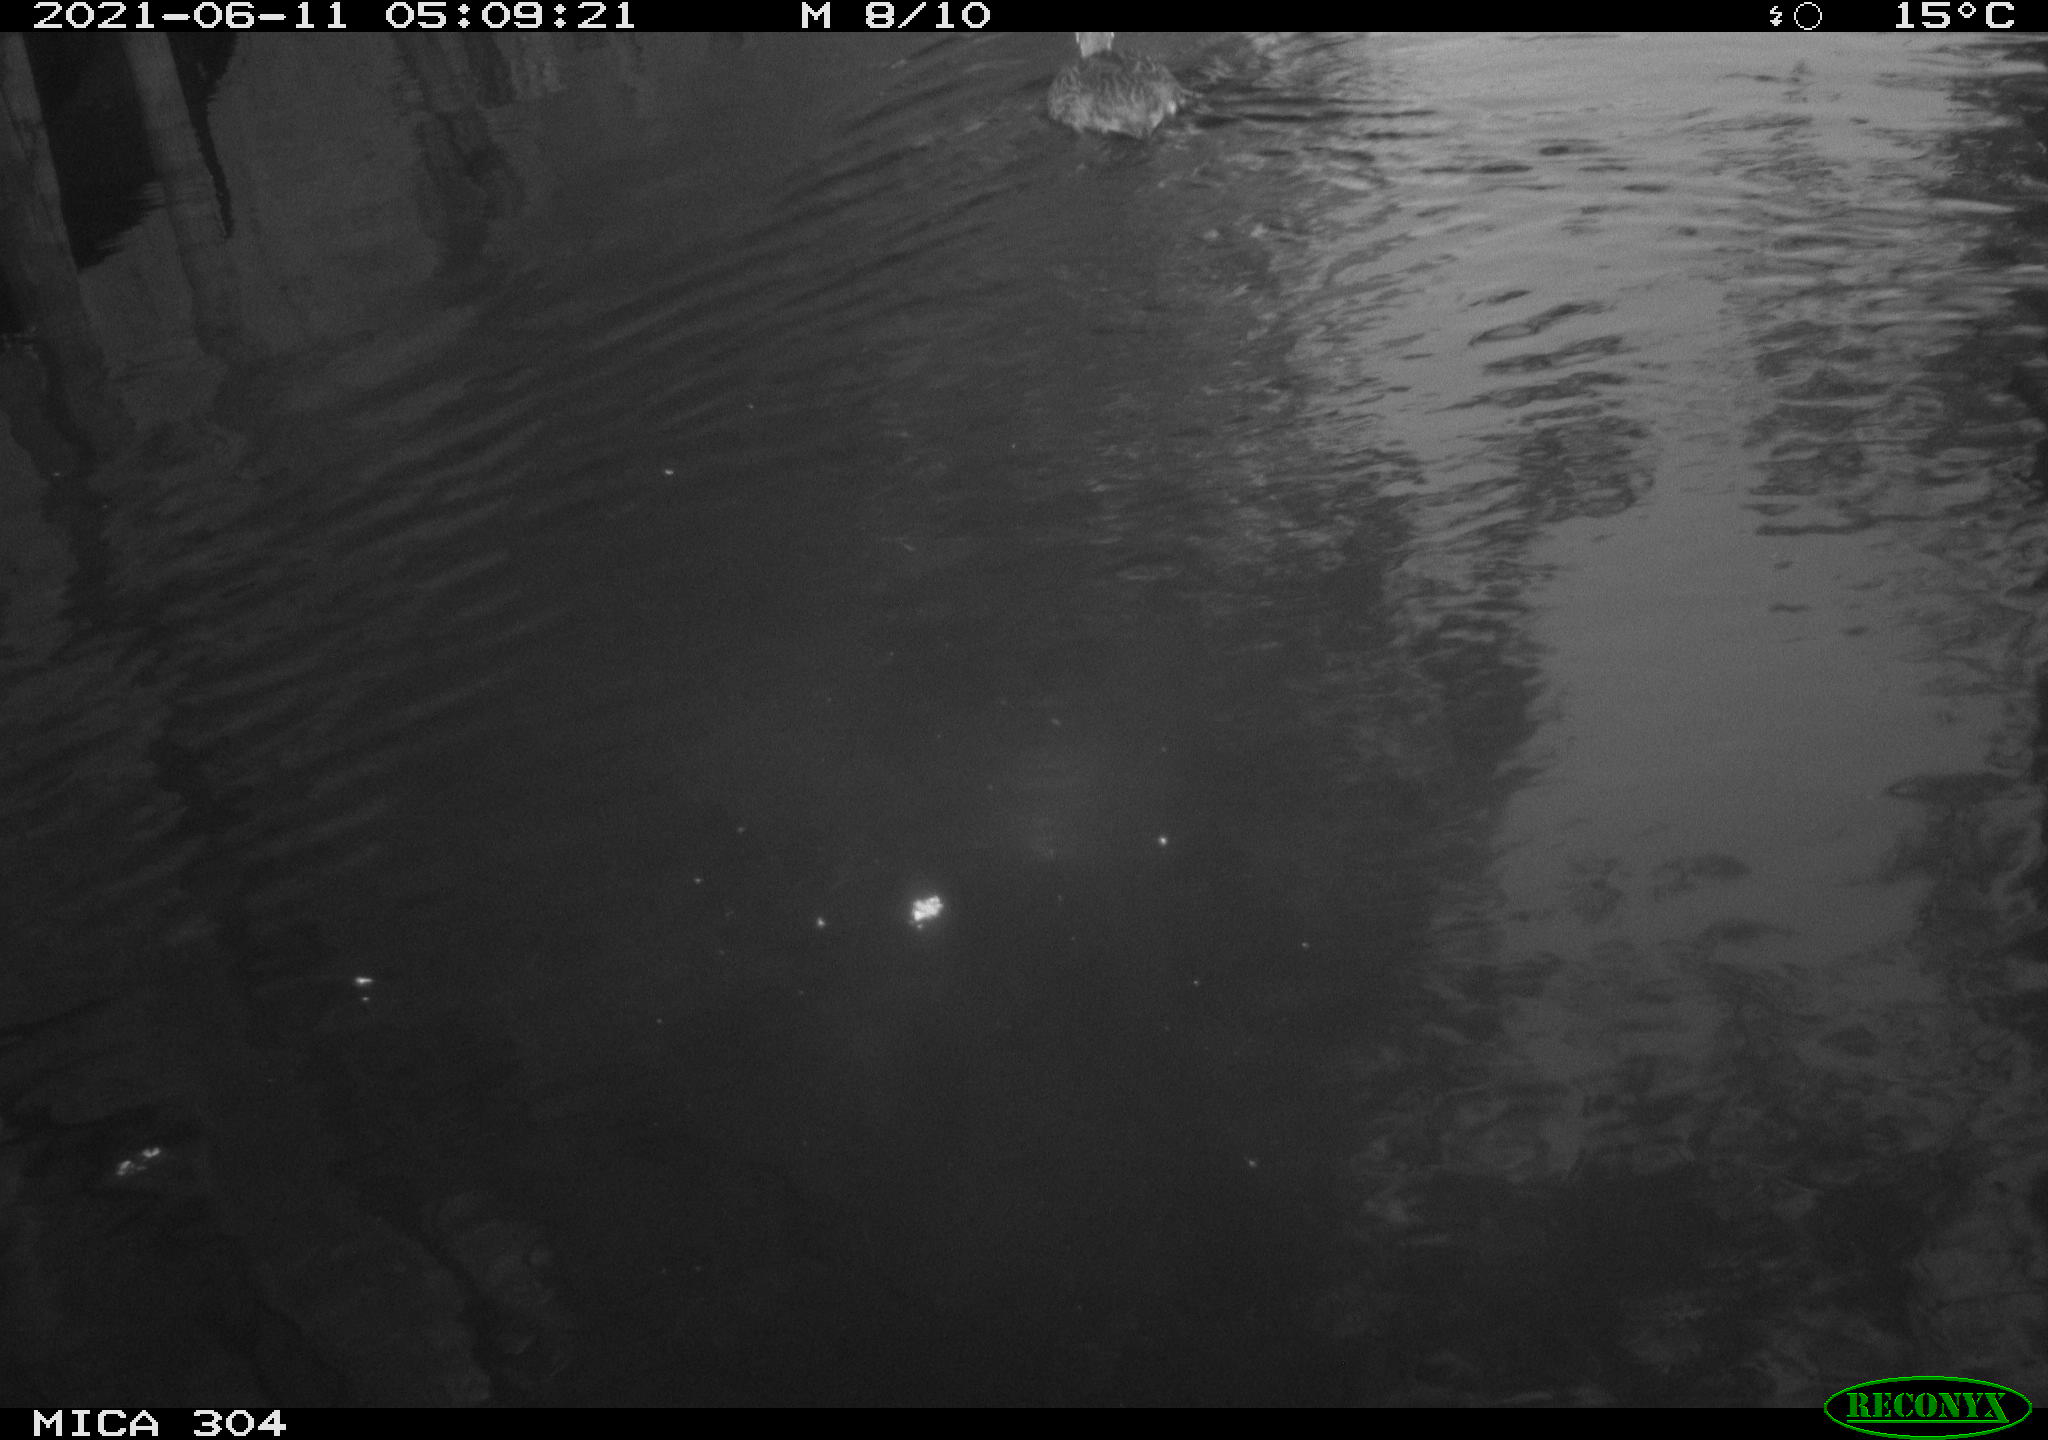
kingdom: Animalia
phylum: Chordata
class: Aves
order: Anseriformes
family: Anatidae
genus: Mareca
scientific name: Mareca strepera
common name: Gadwall
